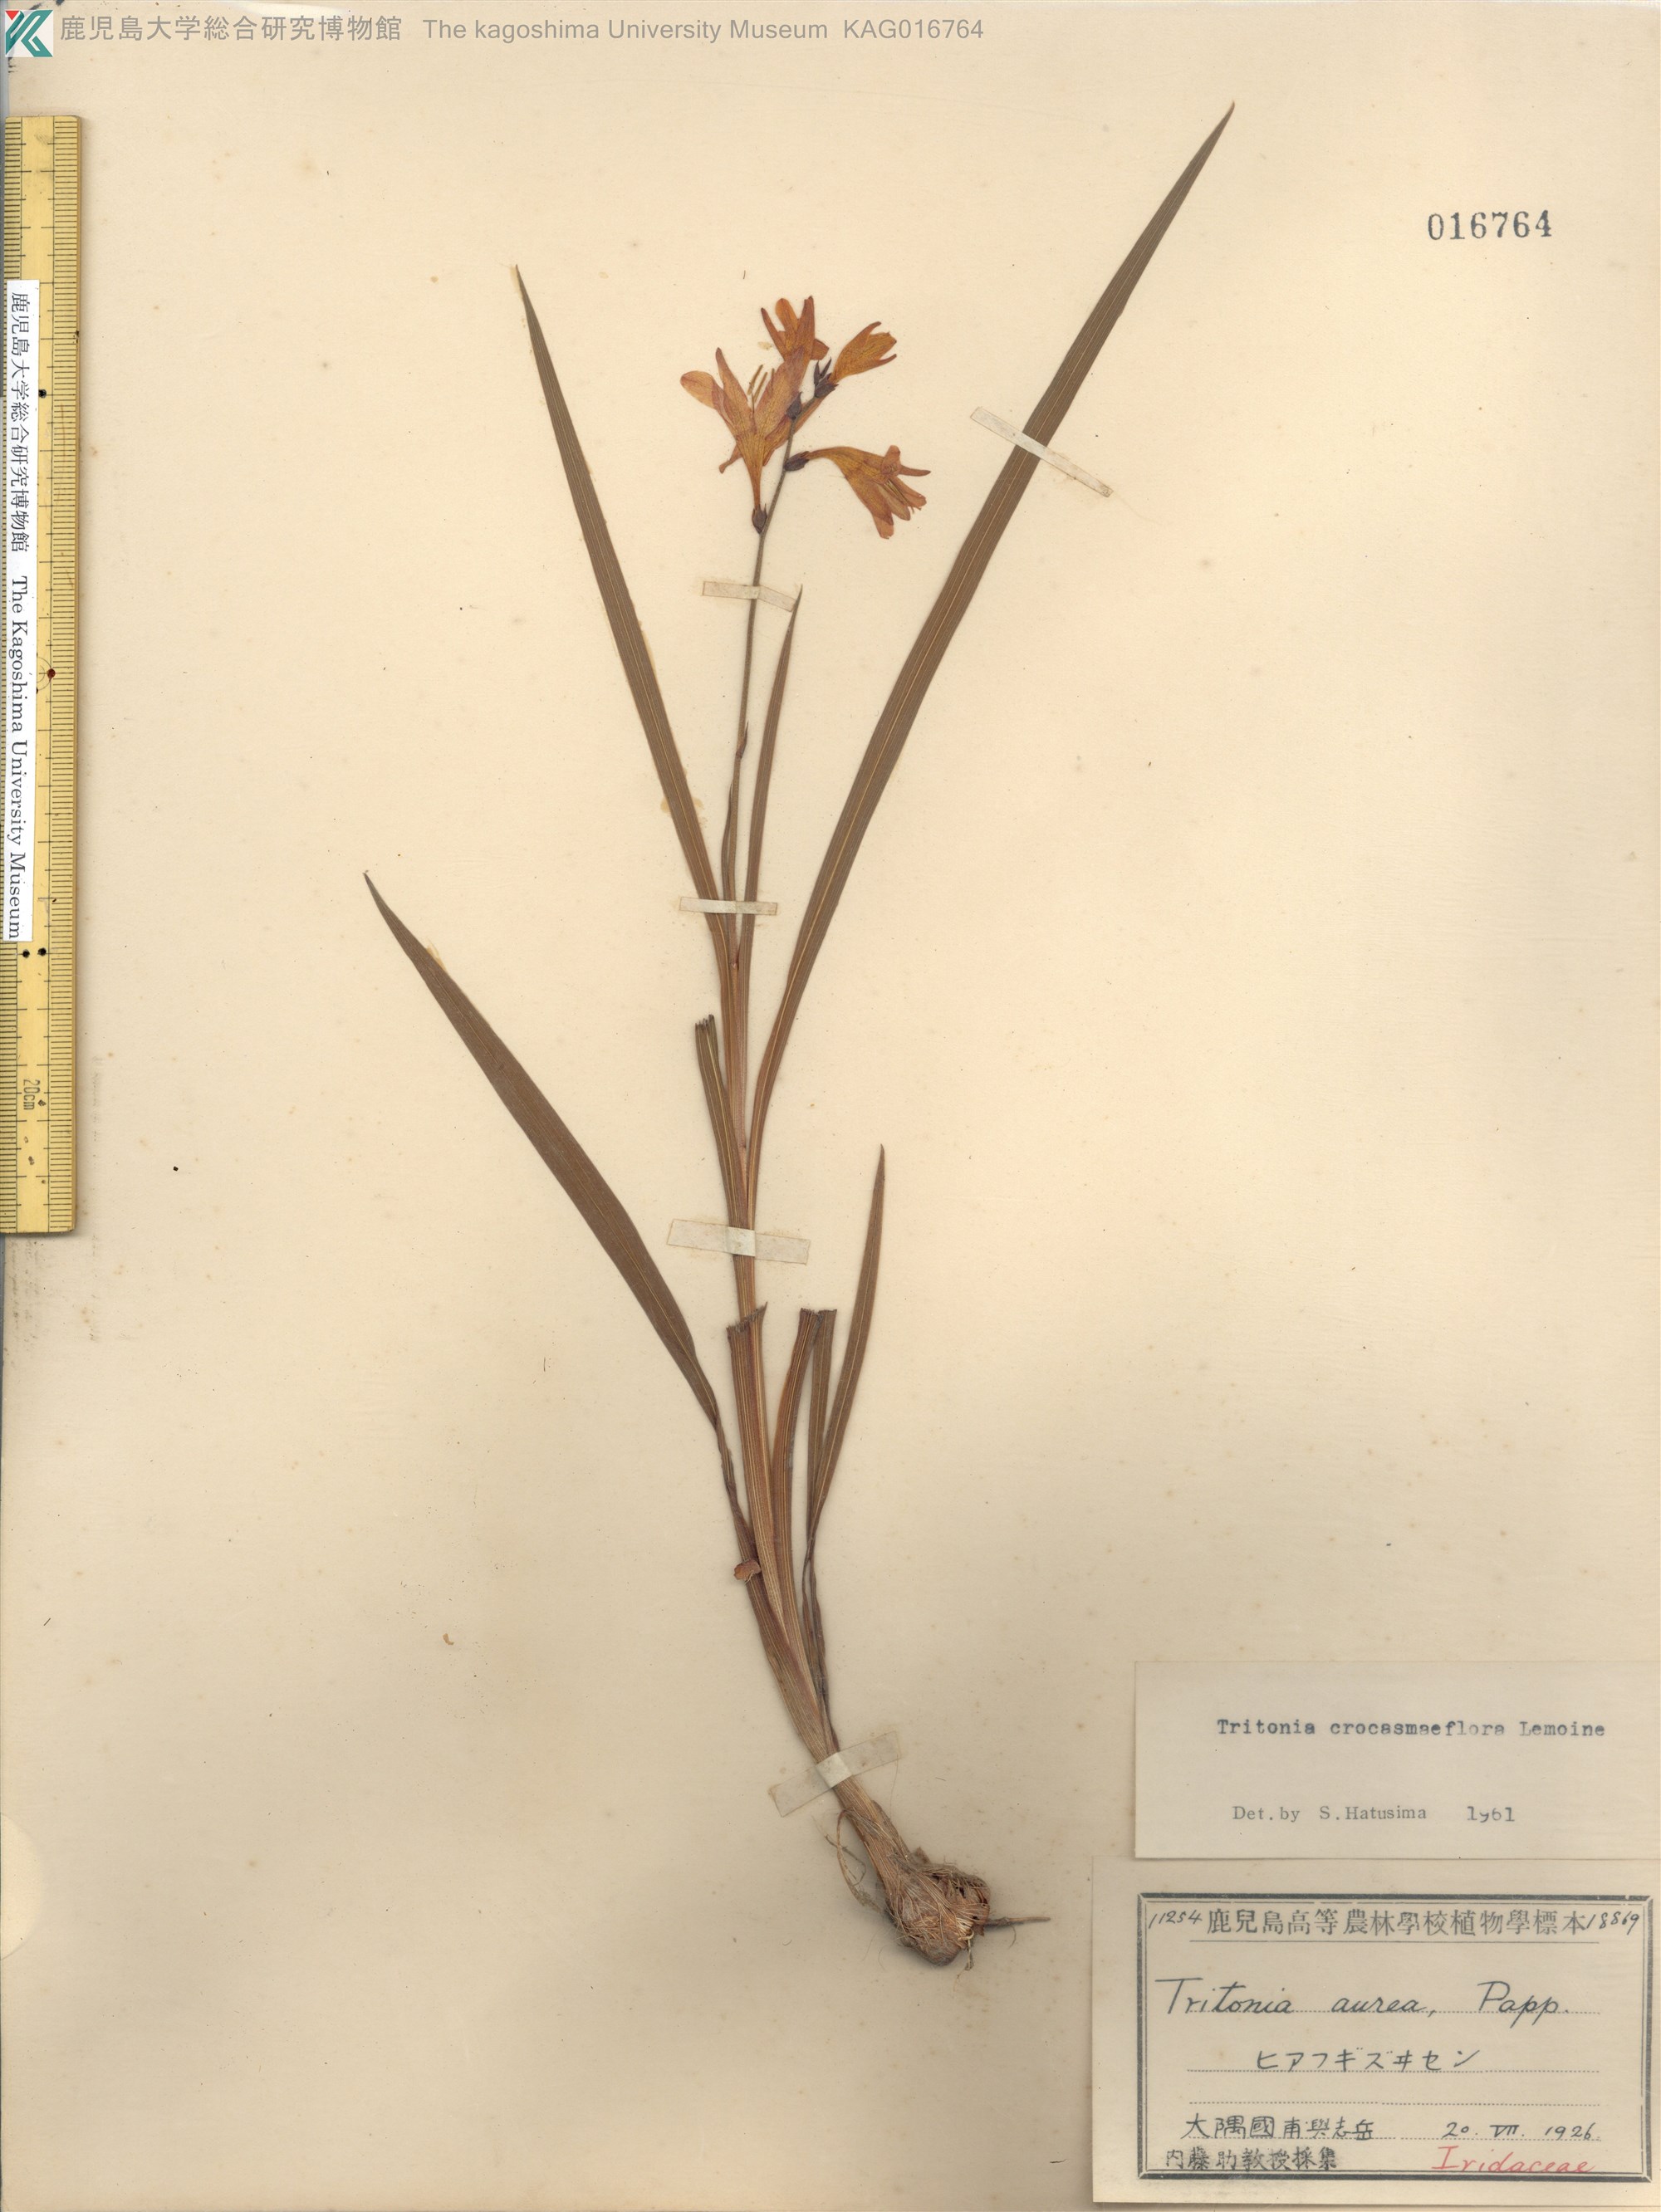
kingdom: Plantae
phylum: Tracheophyta
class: Liliopsida
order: Asparagales
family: Iridaceae
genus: Crocosmia
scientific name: Crocosmia crocosmiiflora
